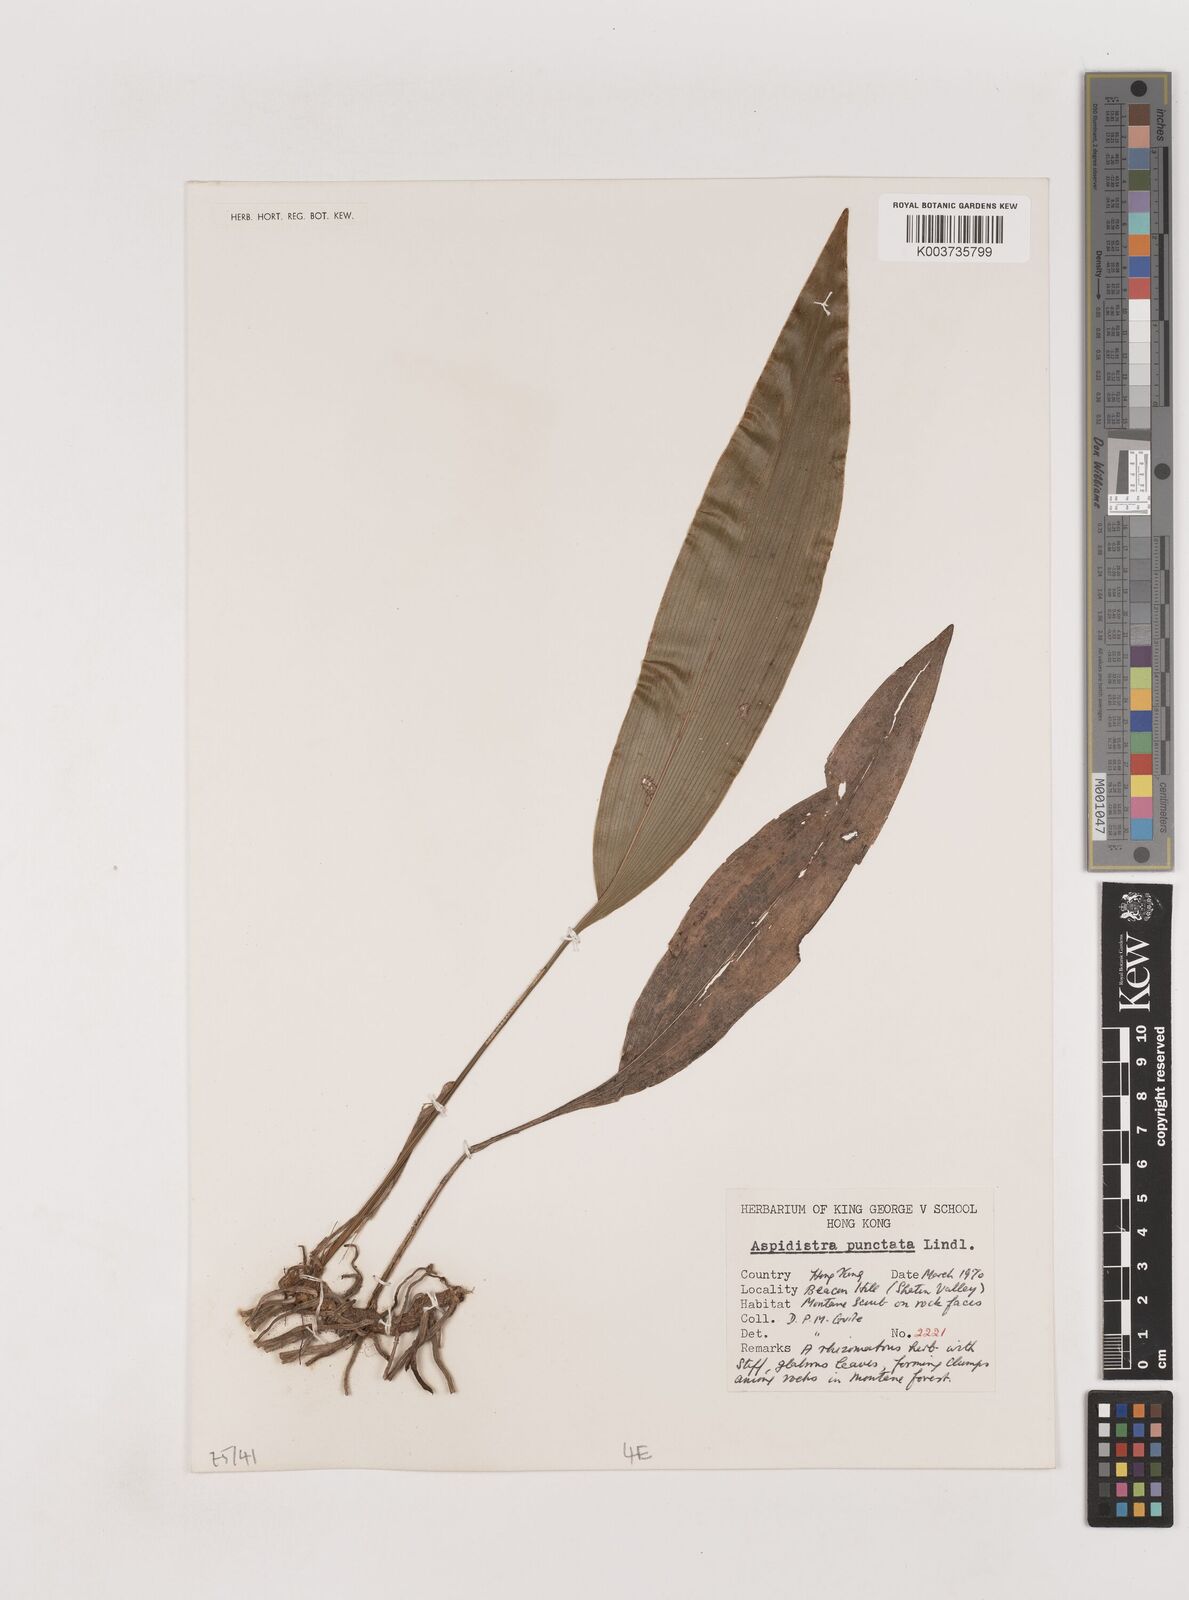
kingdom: Plantae
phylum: Tracheophyta
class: Liliopsida
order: Asparagales
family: Asparagaceae
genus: Aspidistra
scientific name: Aspidistra elatior
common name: Cast-iron-plant
